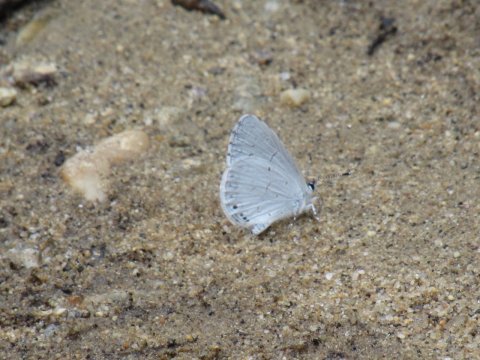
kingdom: Animalia
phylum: Arthropoda
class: Insecta
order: Lepidoptera
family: Lycaenidae
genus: Cyaniris
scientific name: Cyaniris neglecta
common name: Summer Azure
